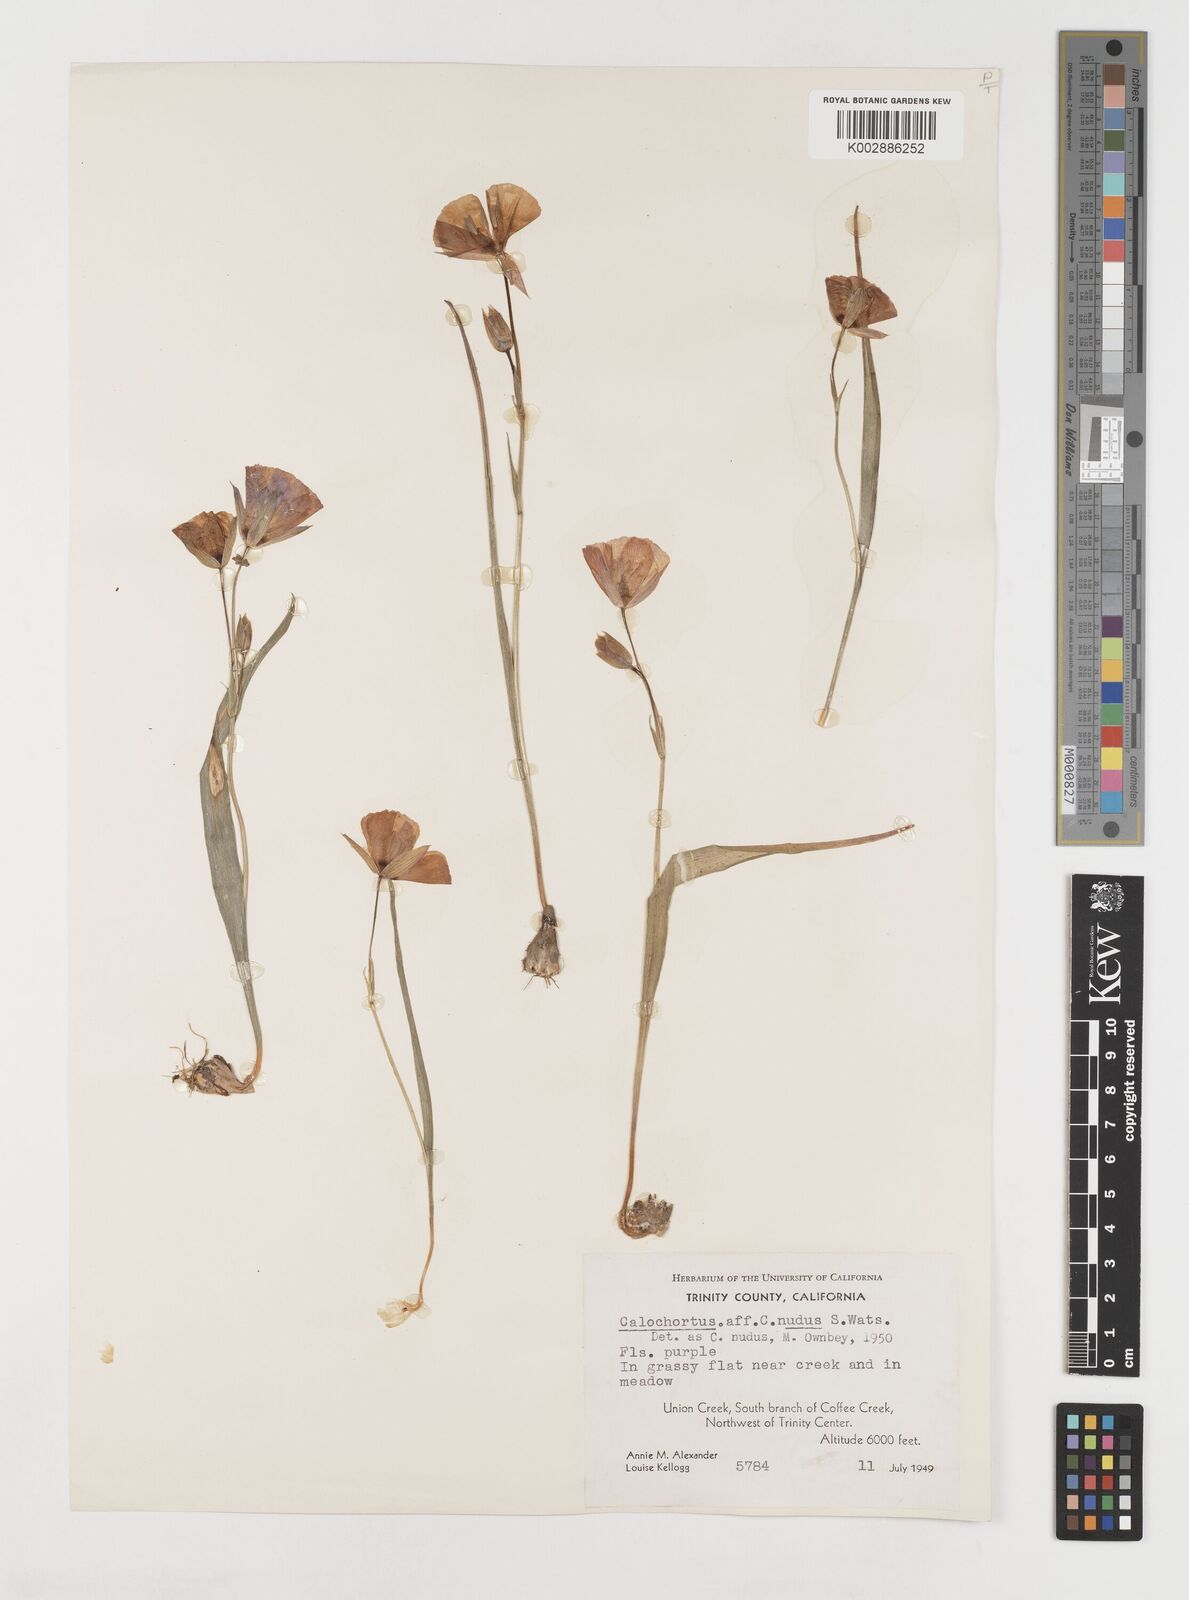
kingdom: Plantae
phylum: Tracheophyta
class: Liliopsida
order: Liliales
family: Liliaceae
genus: Calochortus
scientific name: Calochortus nudus
